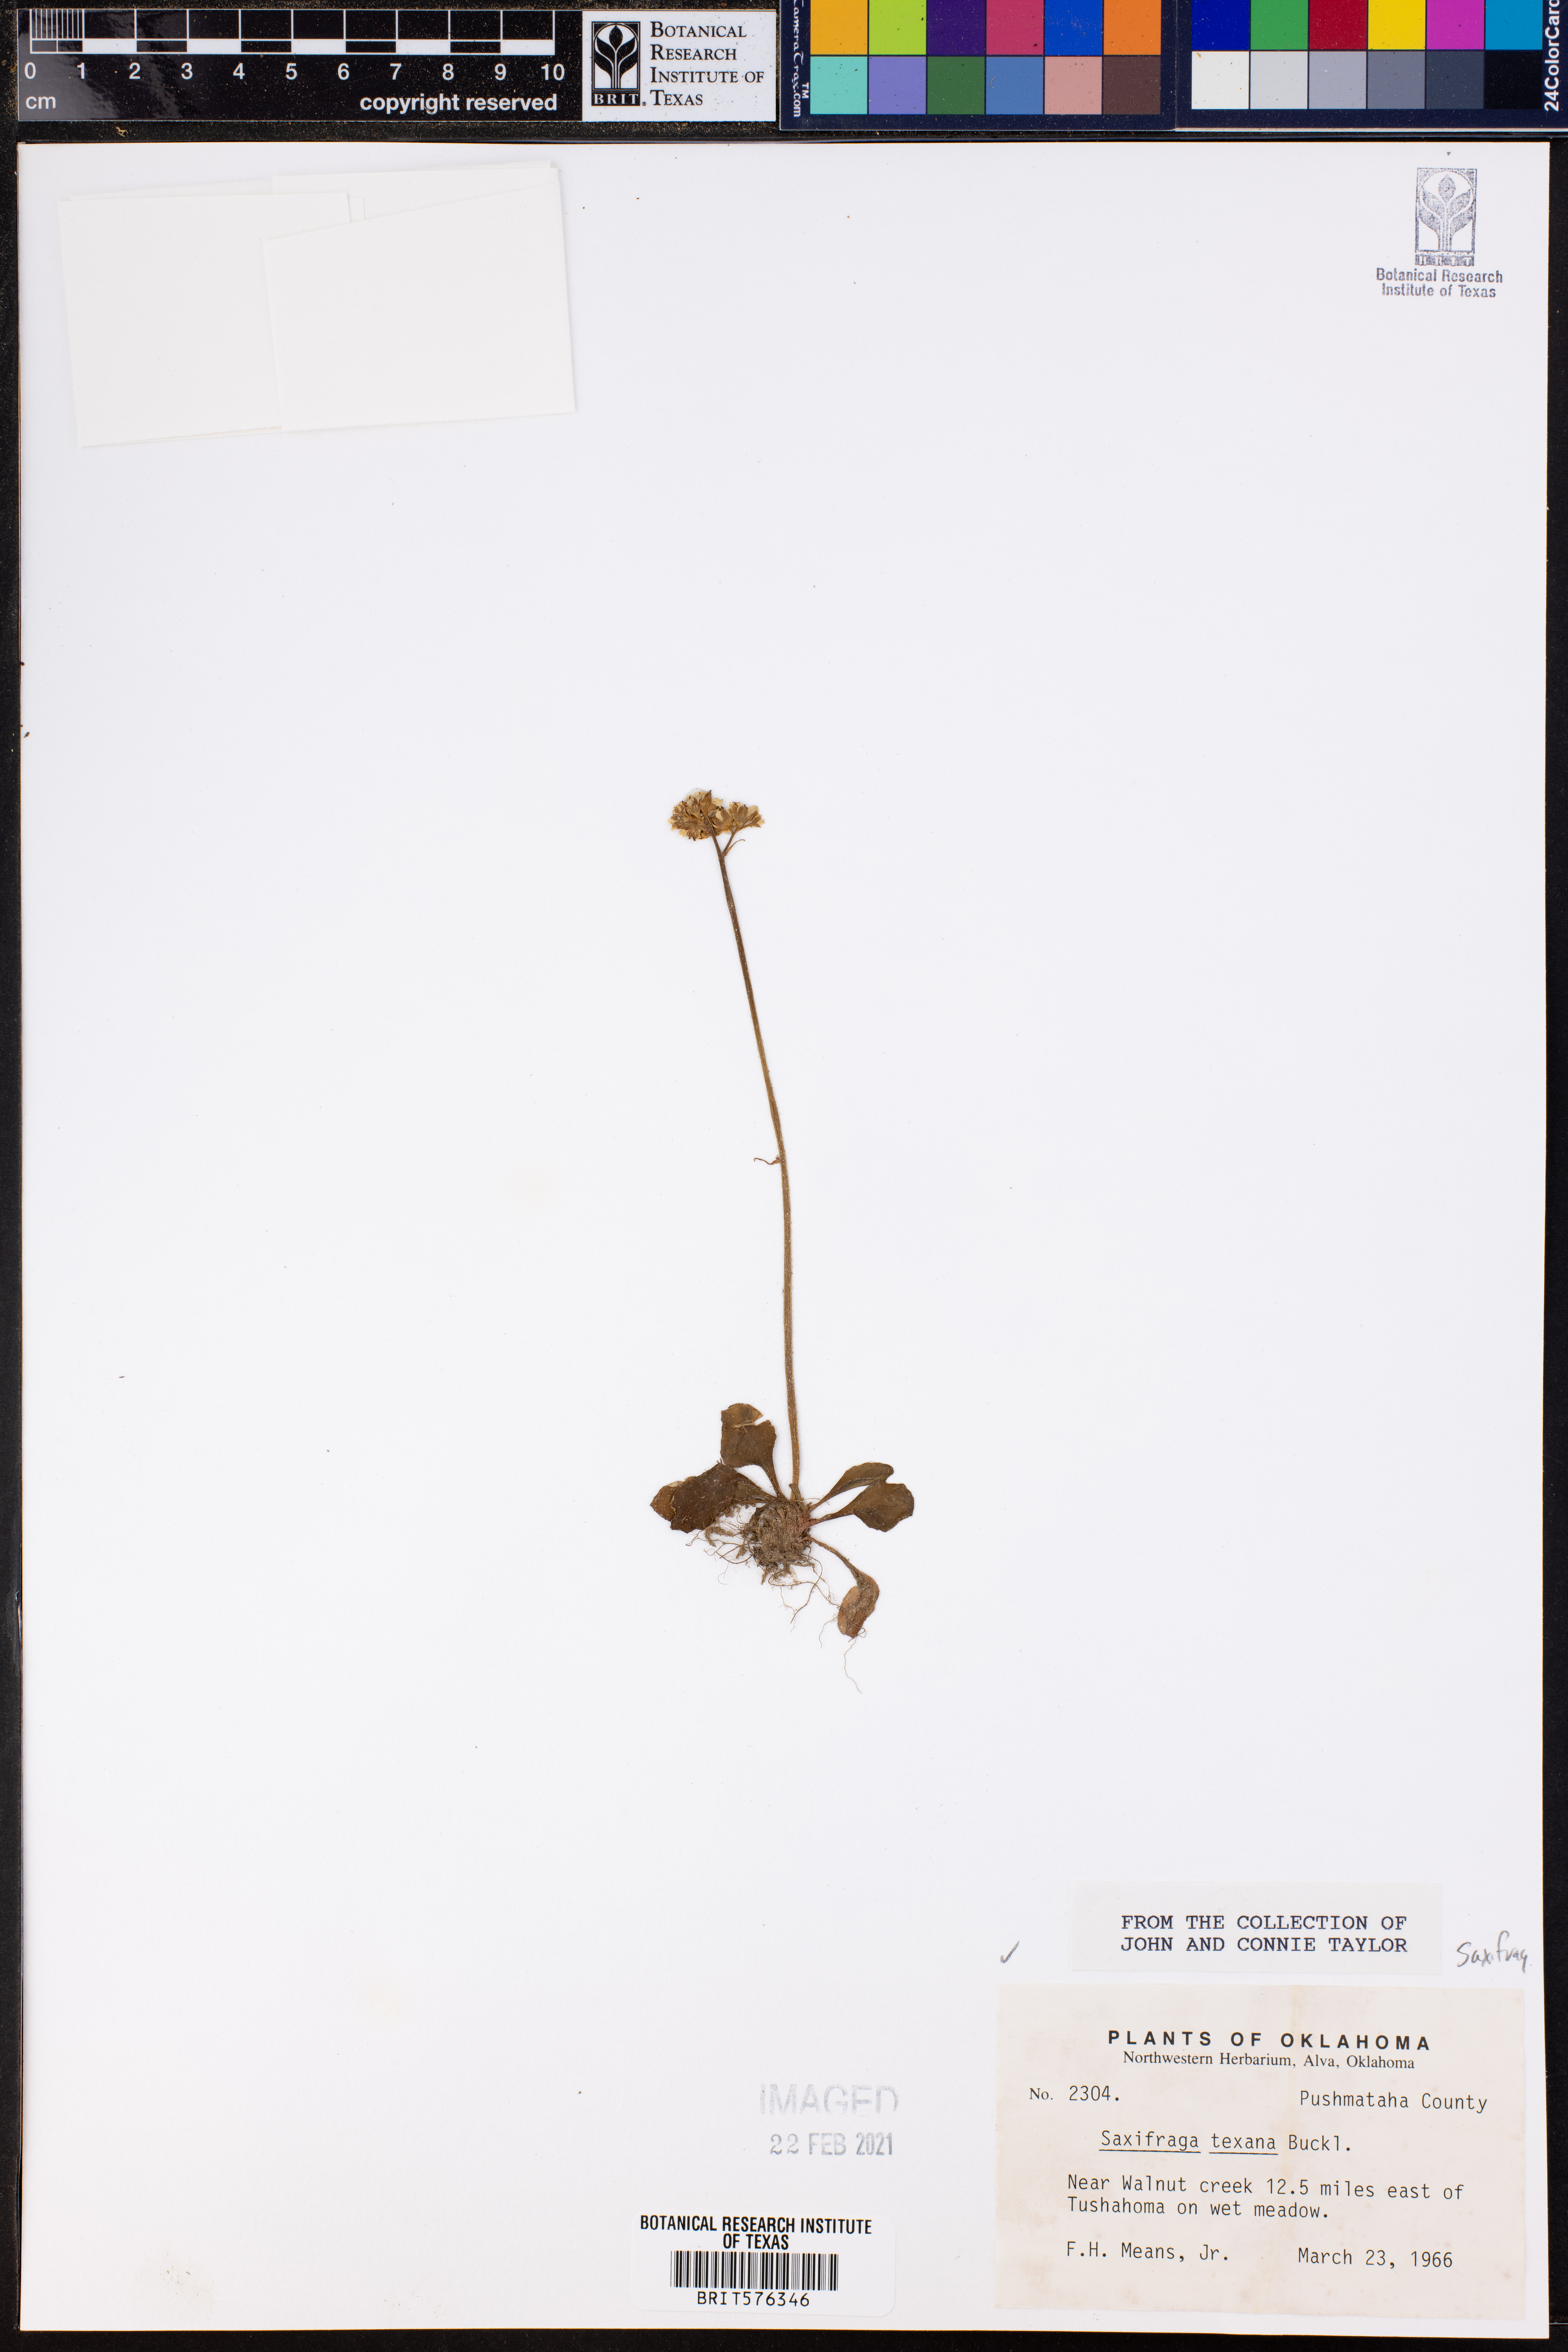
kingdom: Plantae
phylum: Tracheophyta
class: Magnoliopsida
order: Saxifragales
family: Saxifragaceae
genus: Micranthes
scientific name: Micranthes texana
